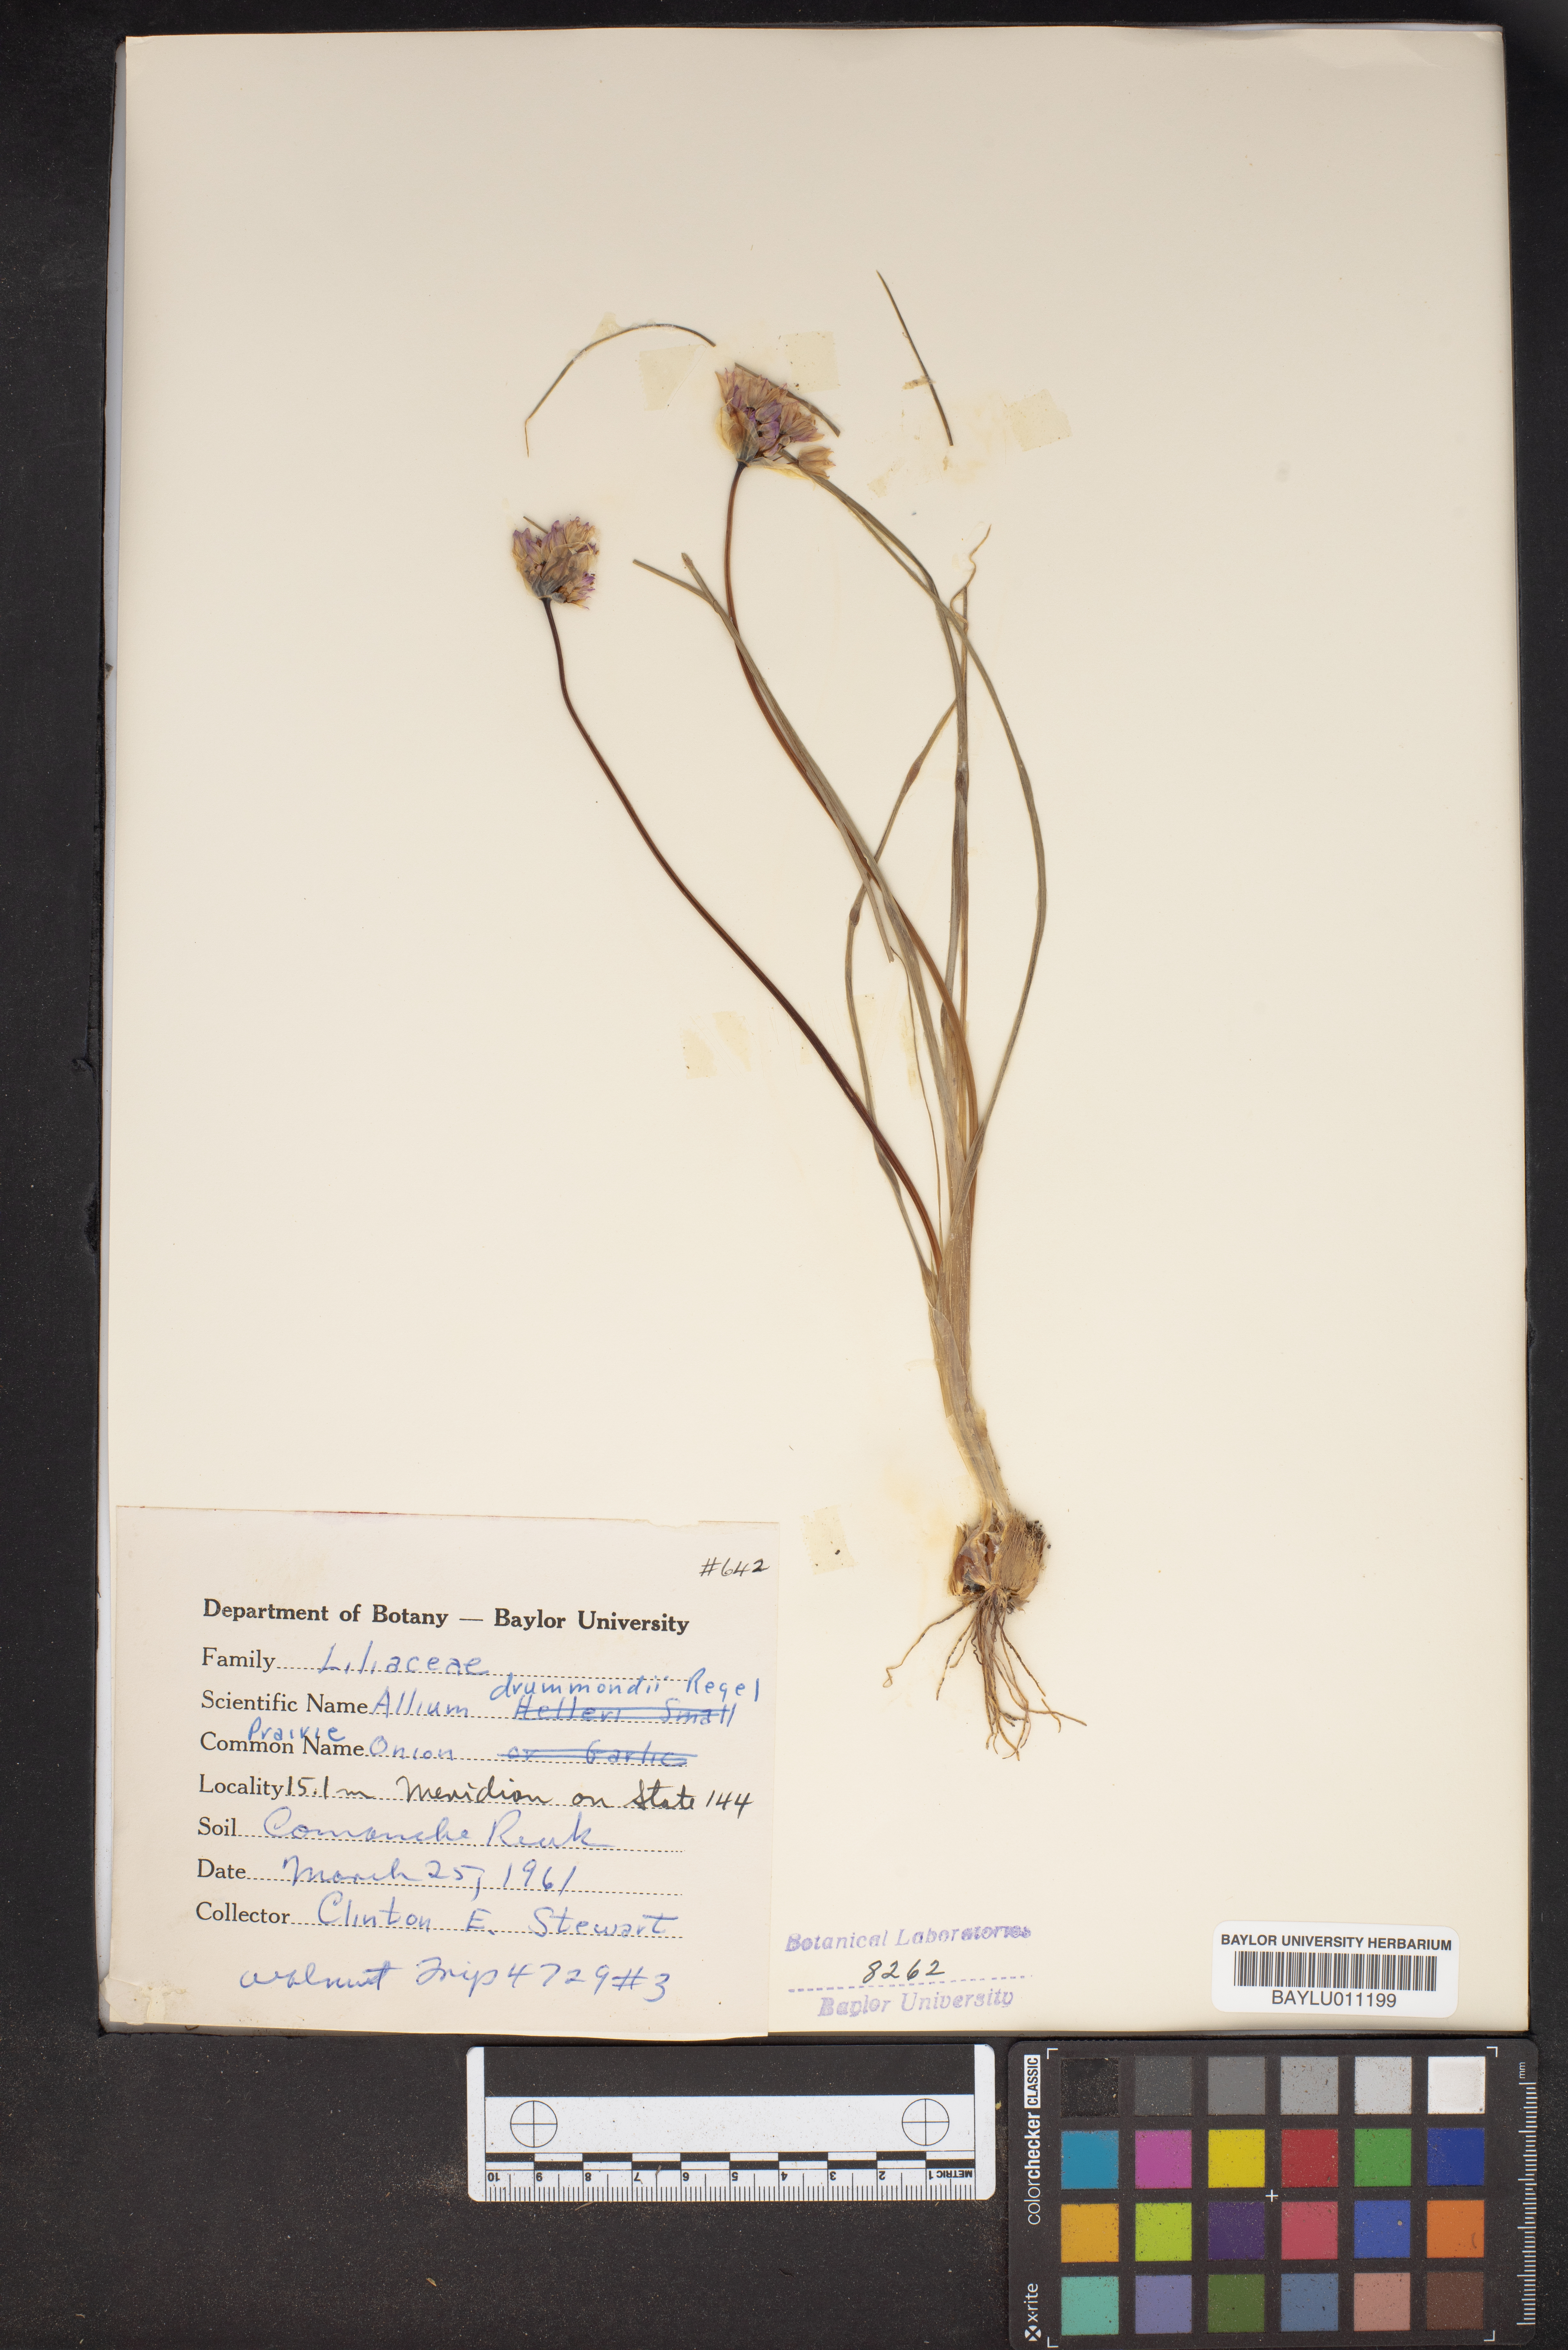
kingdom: Plantae
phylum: Tracheophyta
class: Liliopsida
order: Asparagales
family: Amaryllidaceae
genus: Allium
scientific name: Allium drummondii
